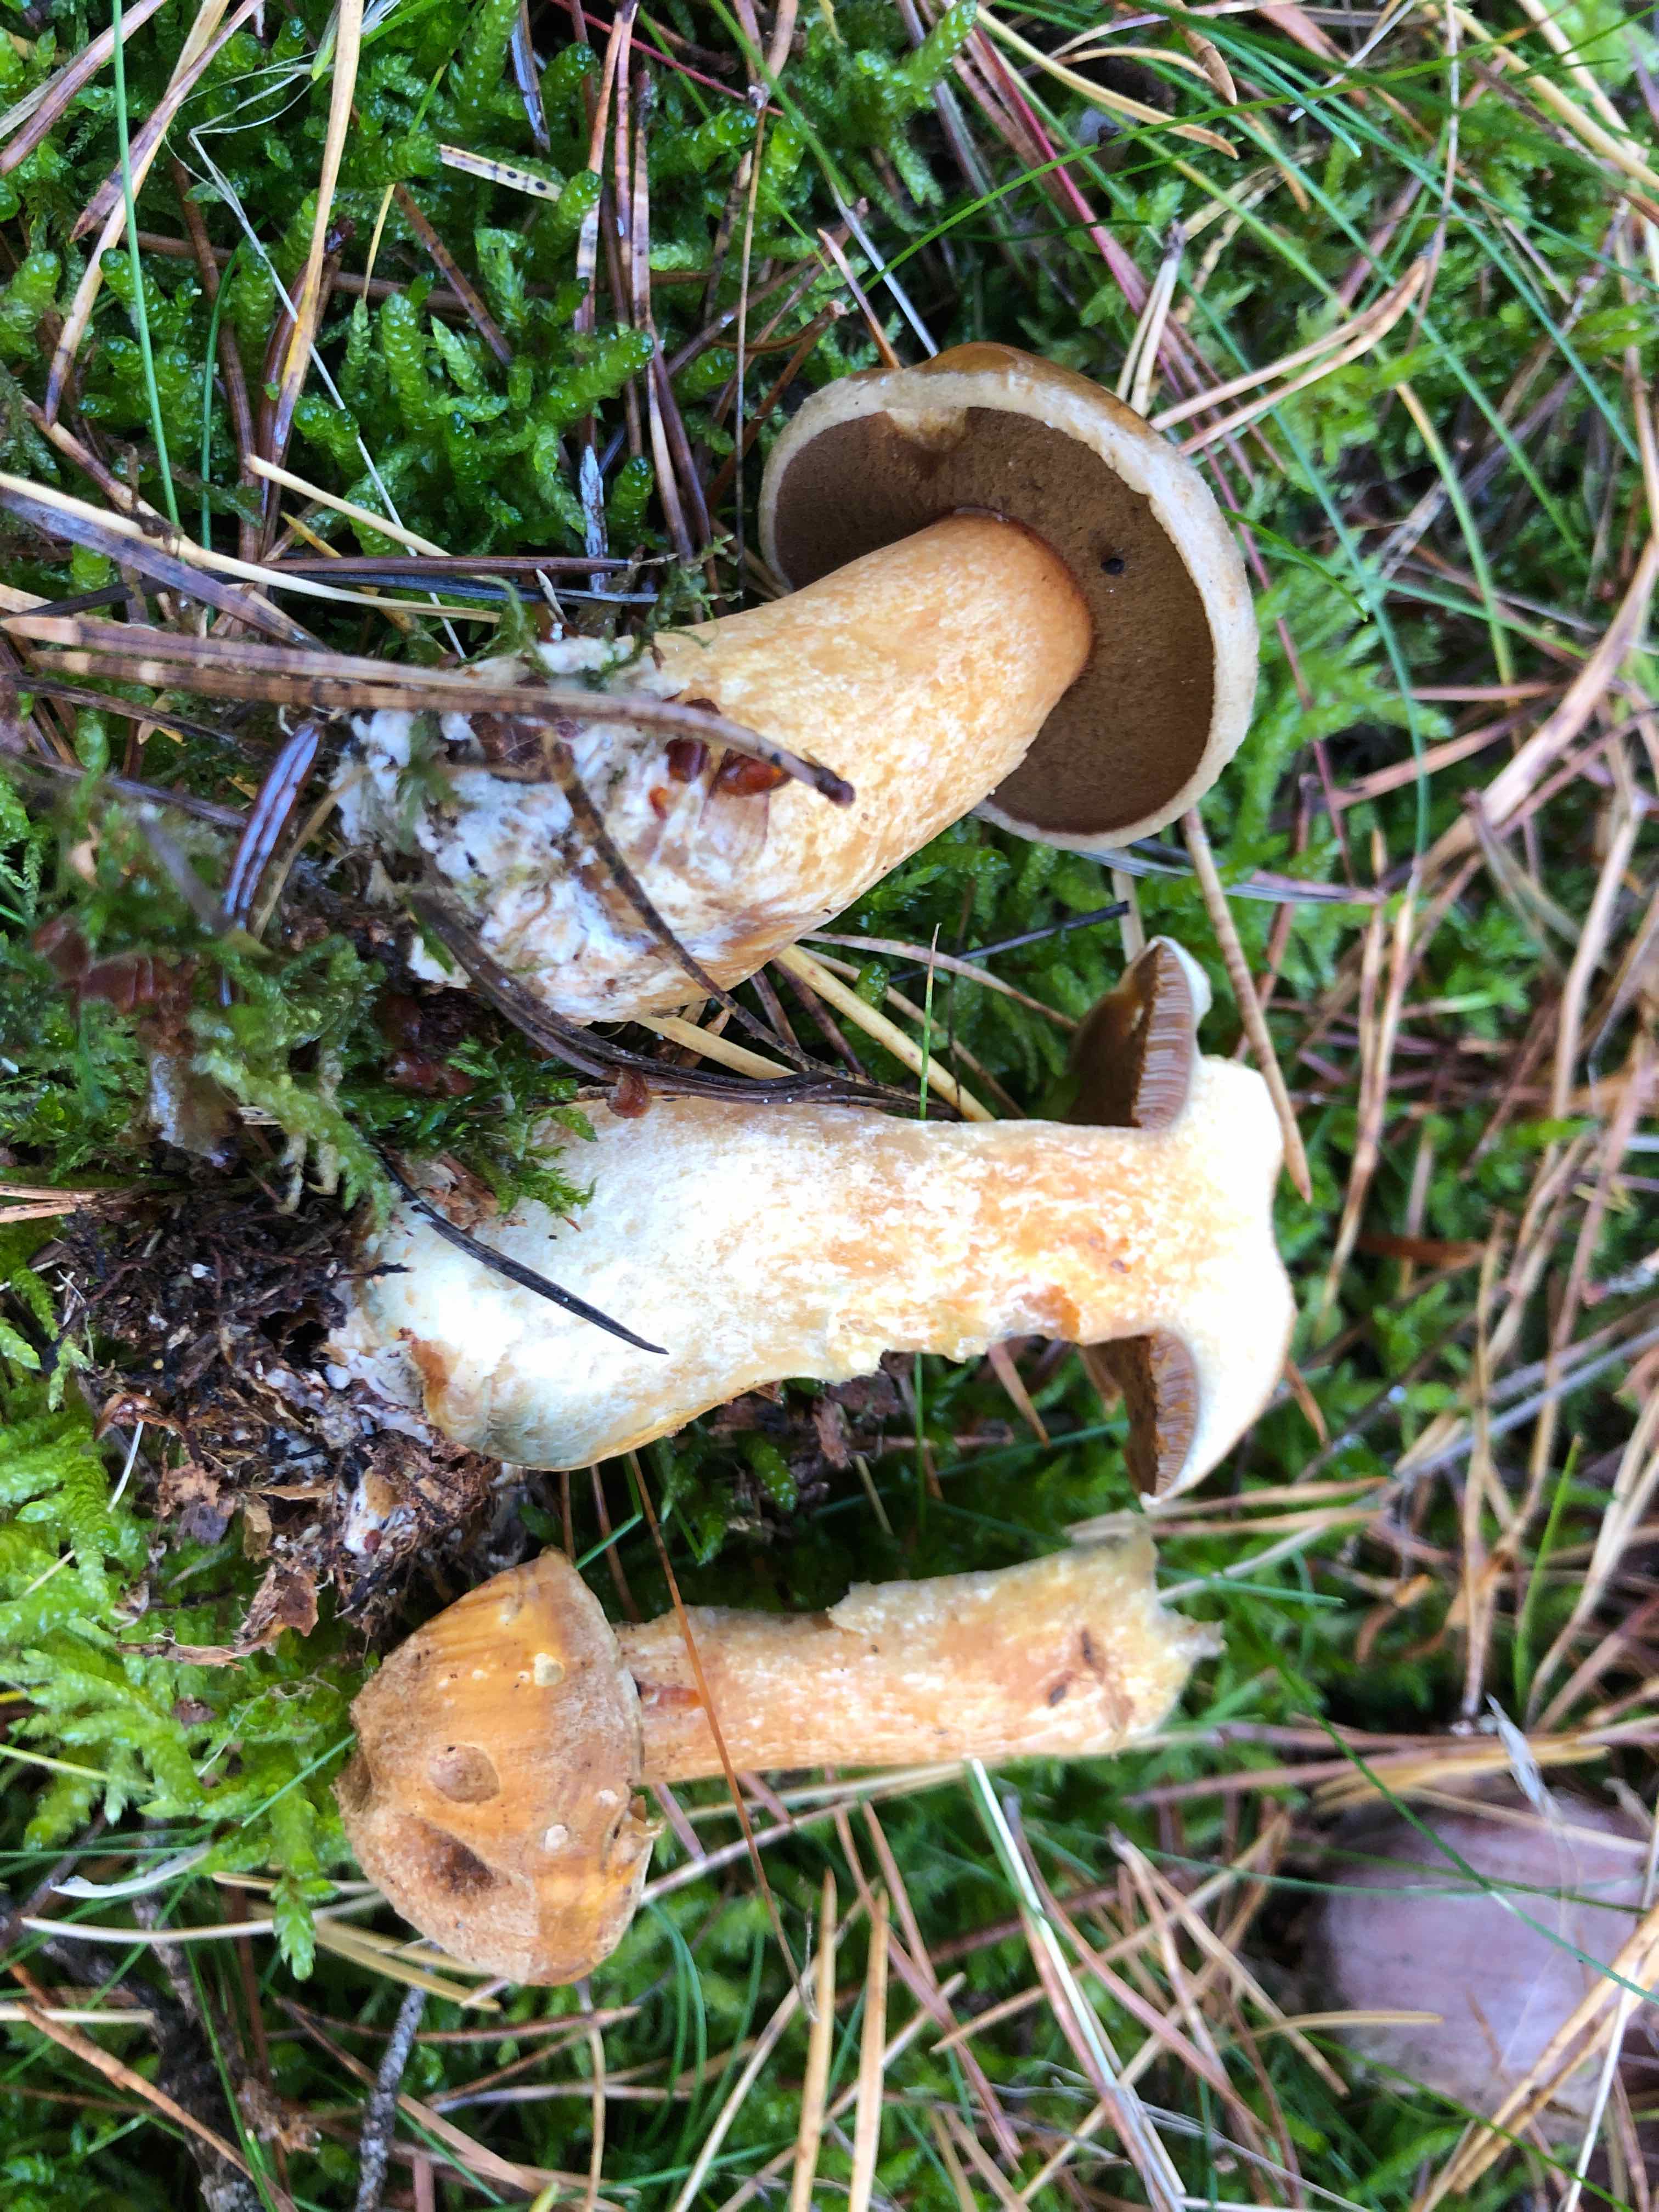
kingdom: Fungi
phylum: Basidiomycota
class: Agaricomycetes
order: Boletales
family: Suillaceae
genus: Suillus
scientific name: Suillus variegatus
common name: broget slimrørhat
